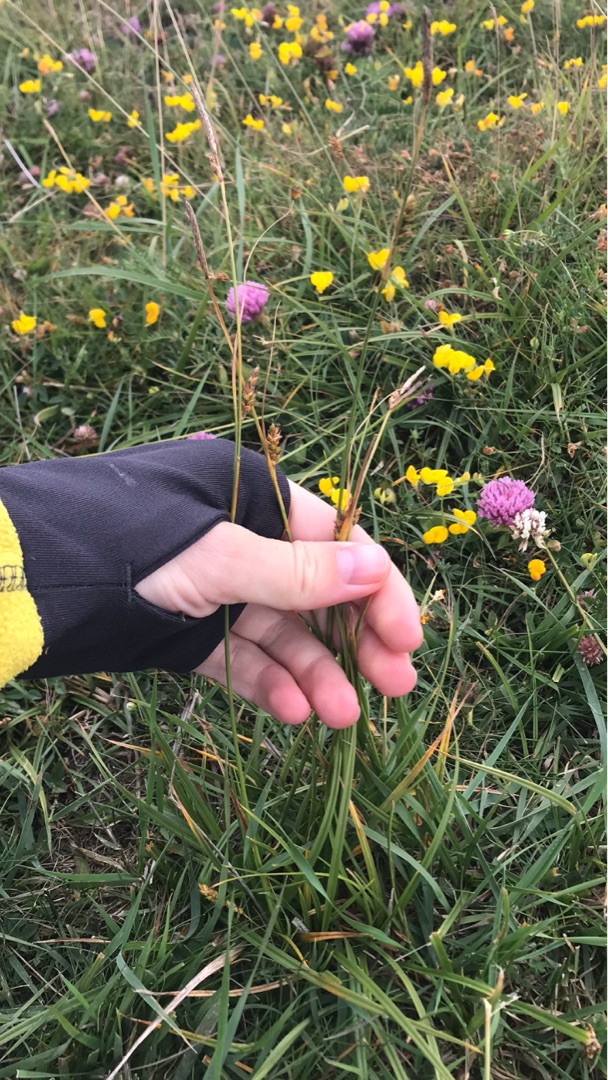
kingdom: Plantae
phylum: Tracheophyta
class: Liliopsida
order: Poales
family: Cyperaceae
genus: Carex
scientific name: Carex distans
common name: Fjernakset star
